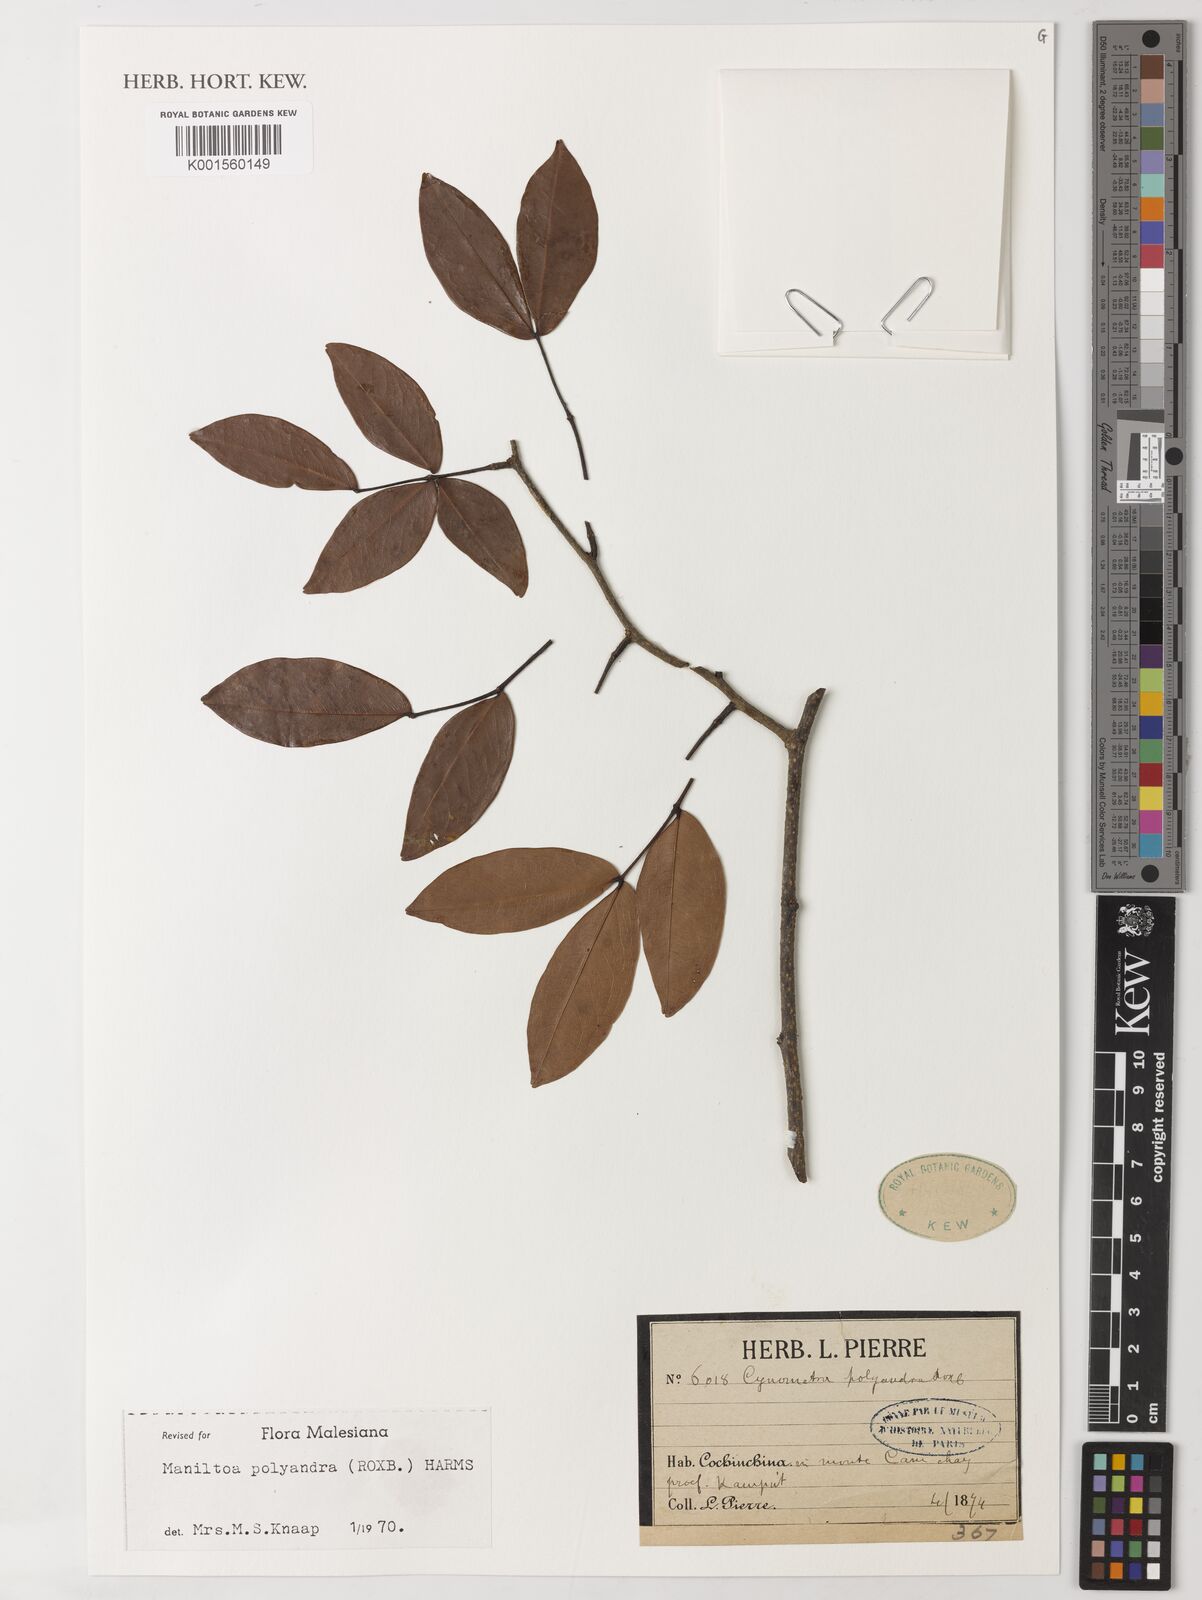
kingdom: Plantae
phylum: Tracheophyta
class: Magnoliopsida
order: Fabales
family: Fabaceae
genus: Cynometra
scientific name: Cynometra polyandra
